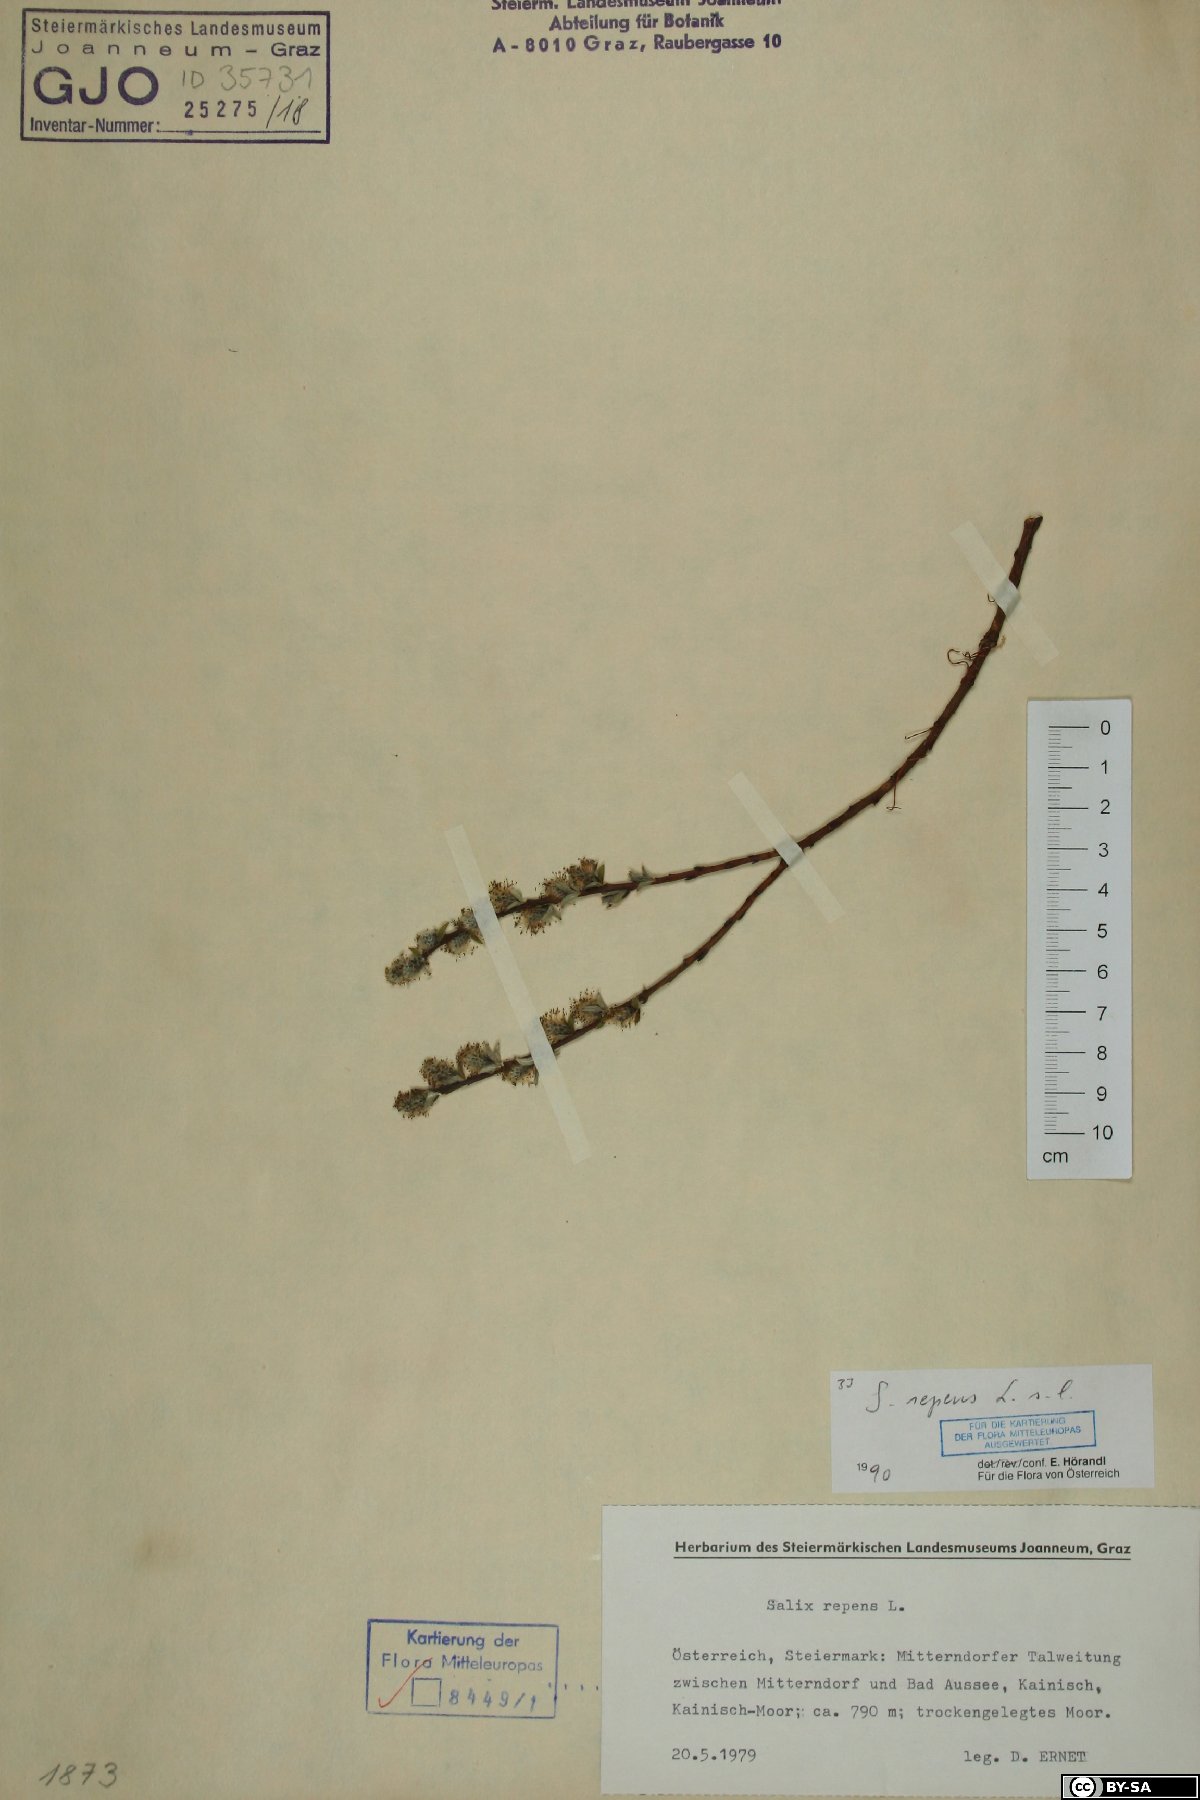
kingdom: Plantae
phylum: Tracheophyta
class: Magnoliopsida
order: Malpighiales
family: Salicaceae
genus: Salix
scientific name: Salix repens
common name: Creeping willow
